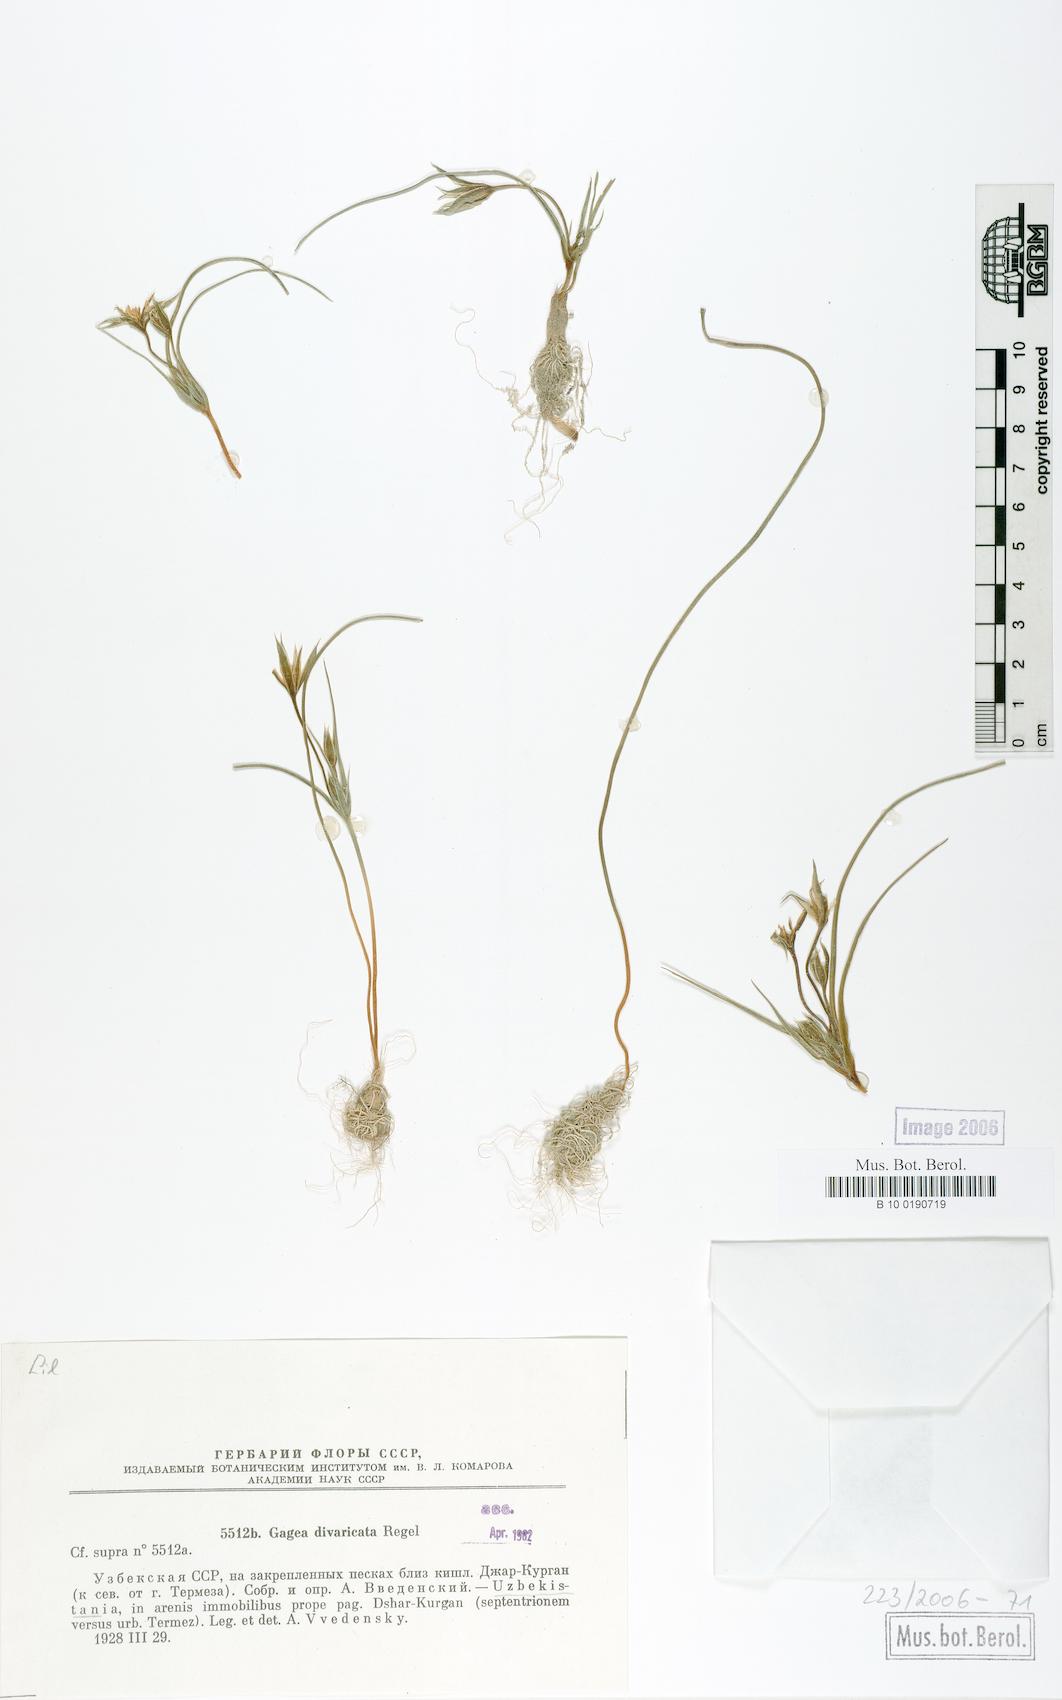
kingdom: Plantae
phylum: Tracheophyta
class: Liliopsida
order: Liliales
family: Liliaceae
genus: Gagea
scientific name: Gagea divaricata
